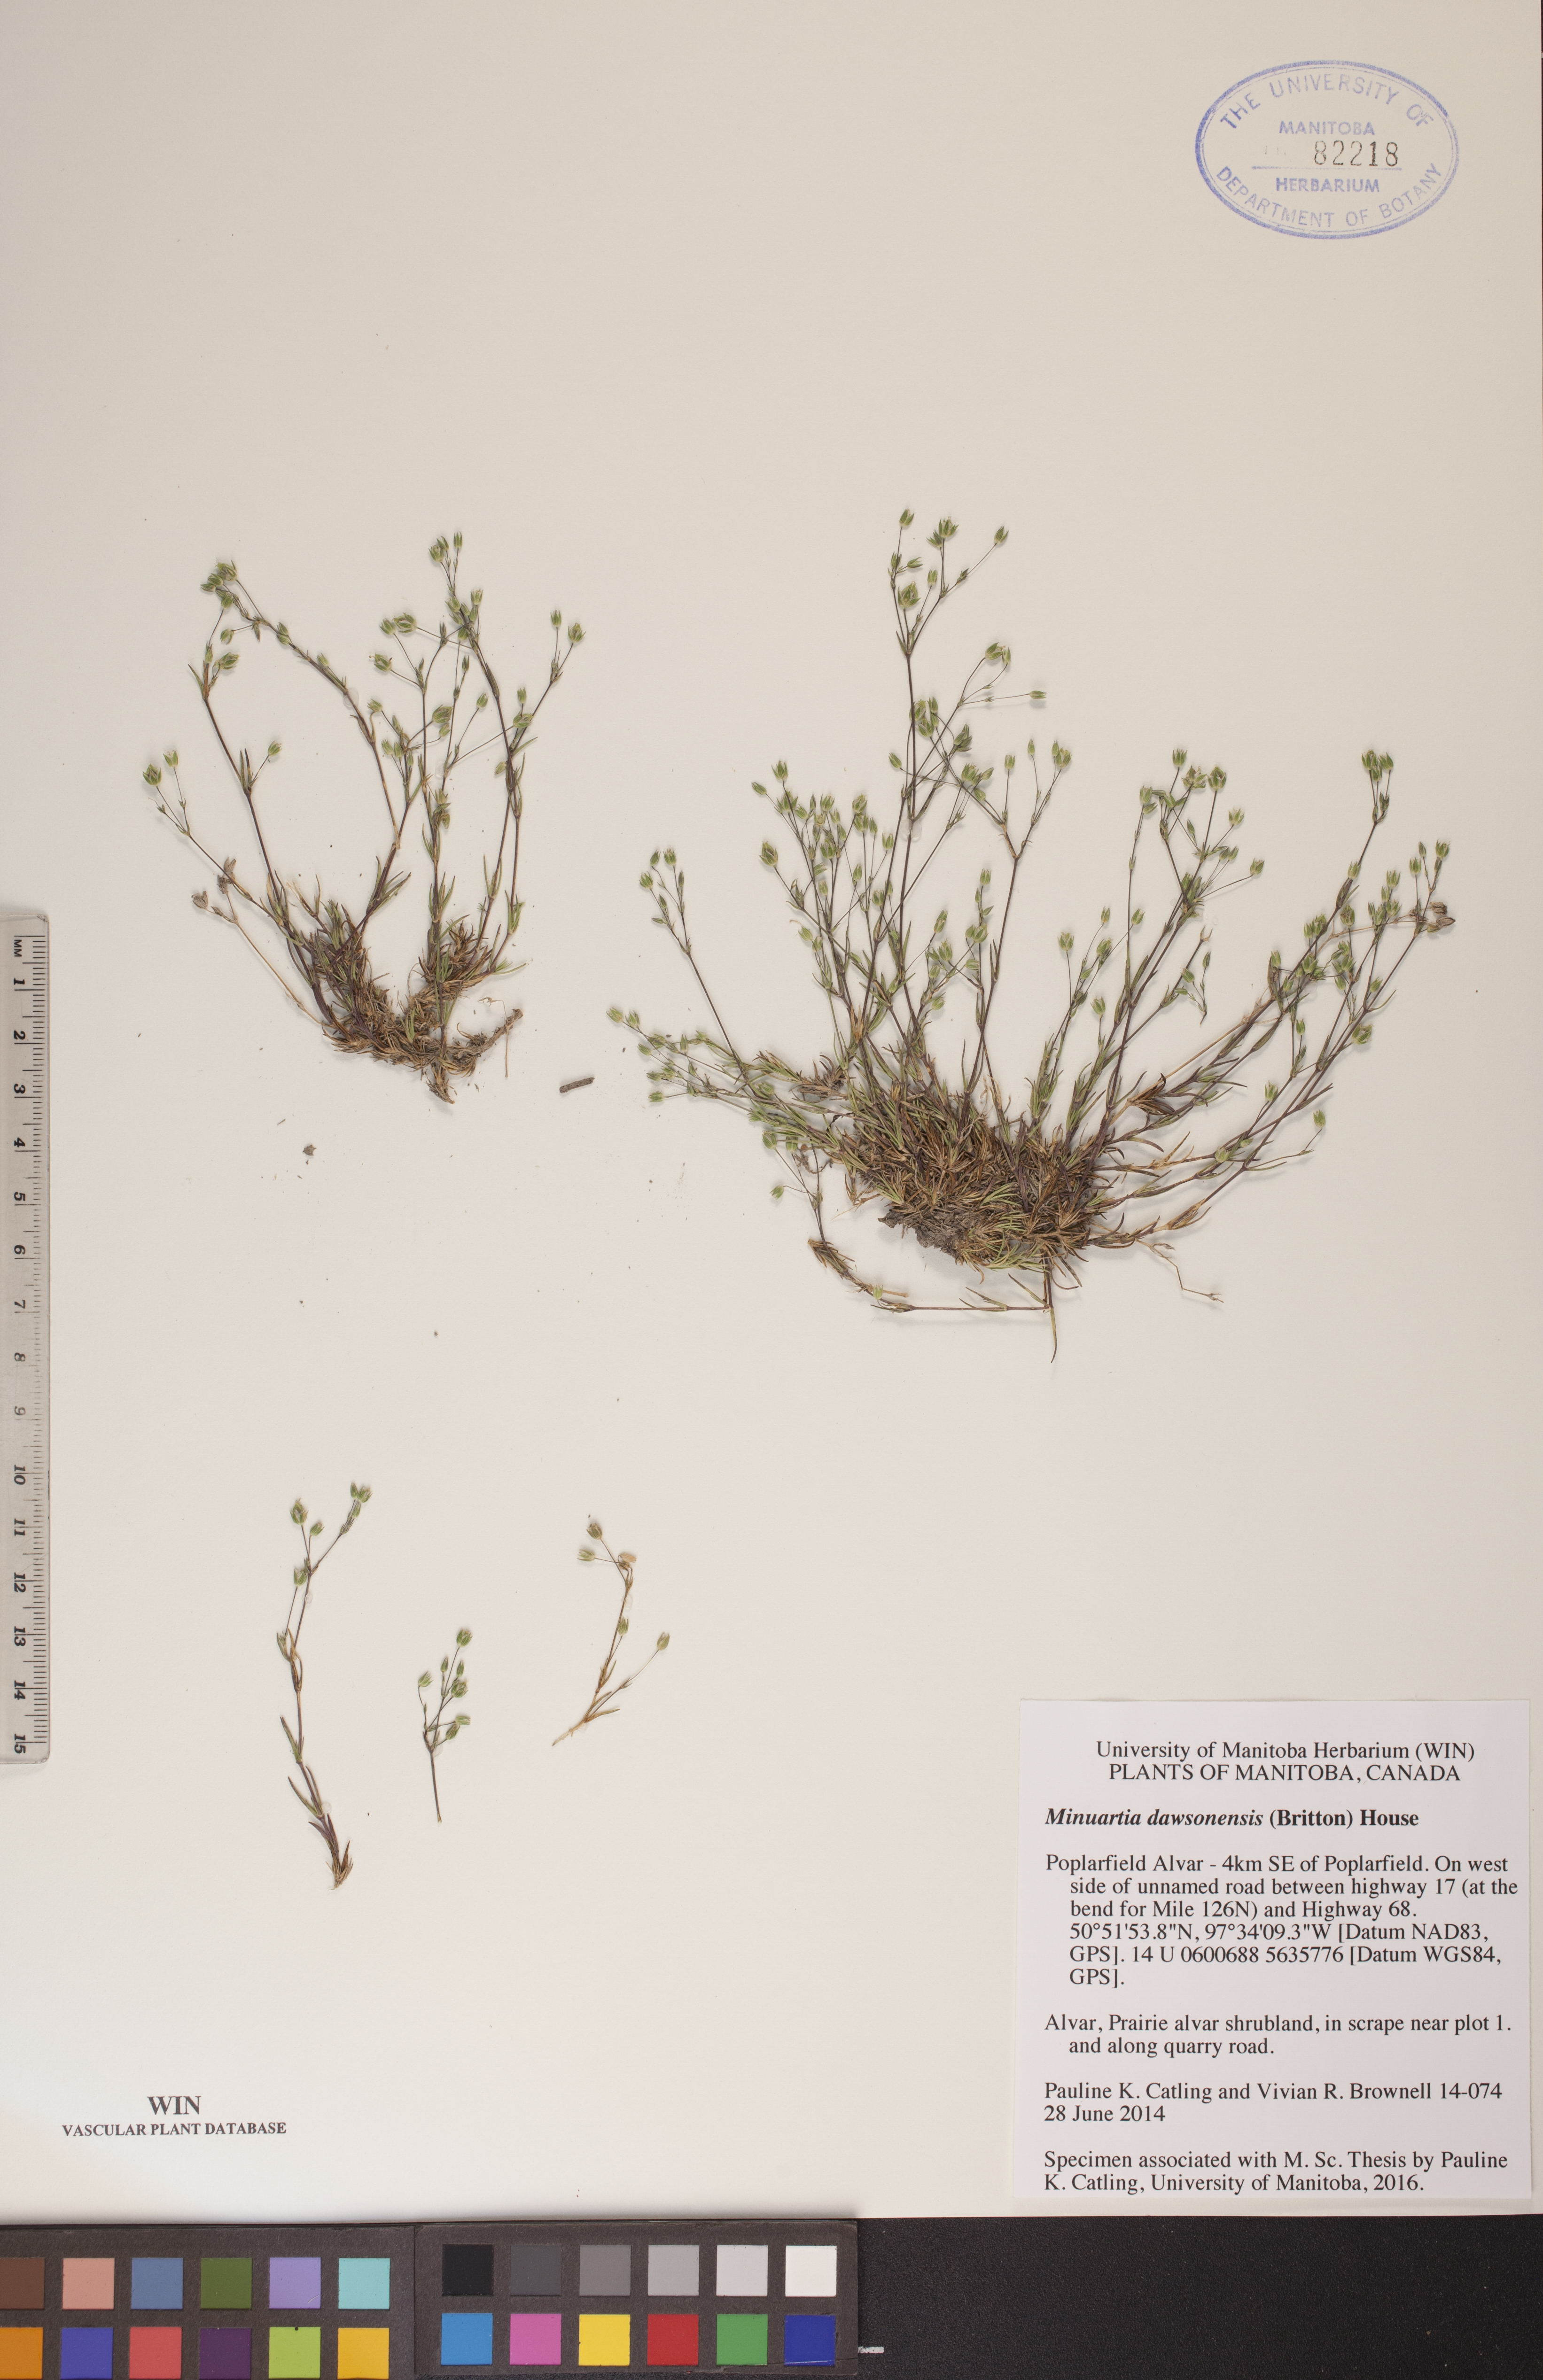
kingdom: Plantae
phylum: Tracheophyta
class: Magnoliopsida
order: Caryophyllales
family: Caryophyllaceae
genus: Sabulina
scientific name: Sabulina dawsonensis
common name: Dawson's cockle
